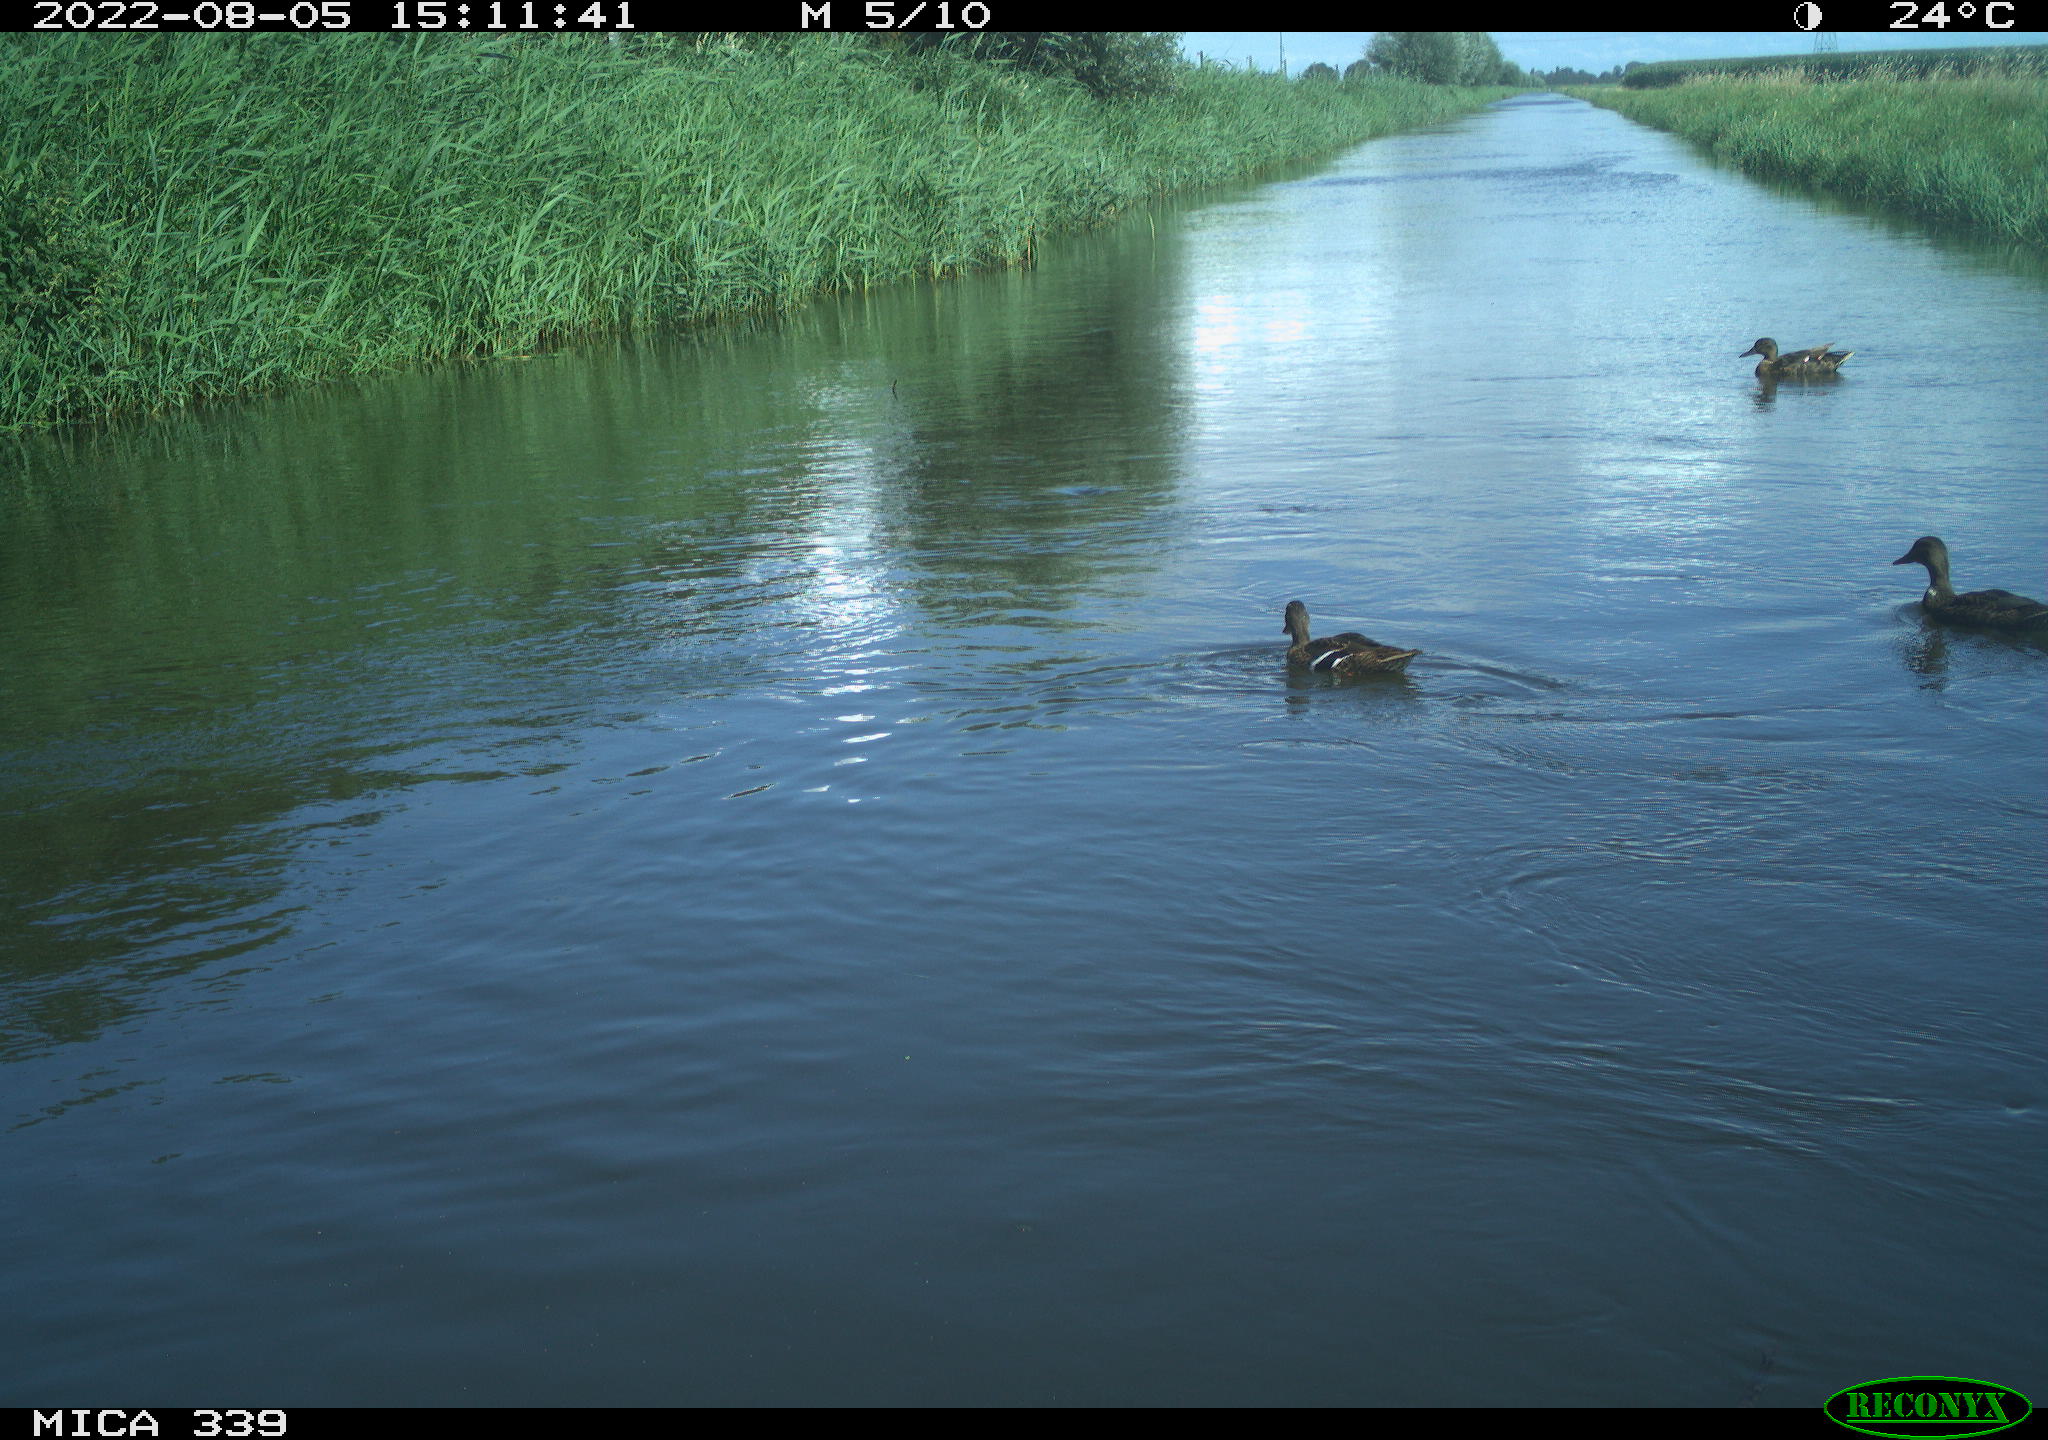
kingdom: Animalia
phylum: Chordata
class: Aves
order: Anseriformes
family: Anatidae
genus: Anas
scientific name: Anas platyrhynchos
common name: Mallard
